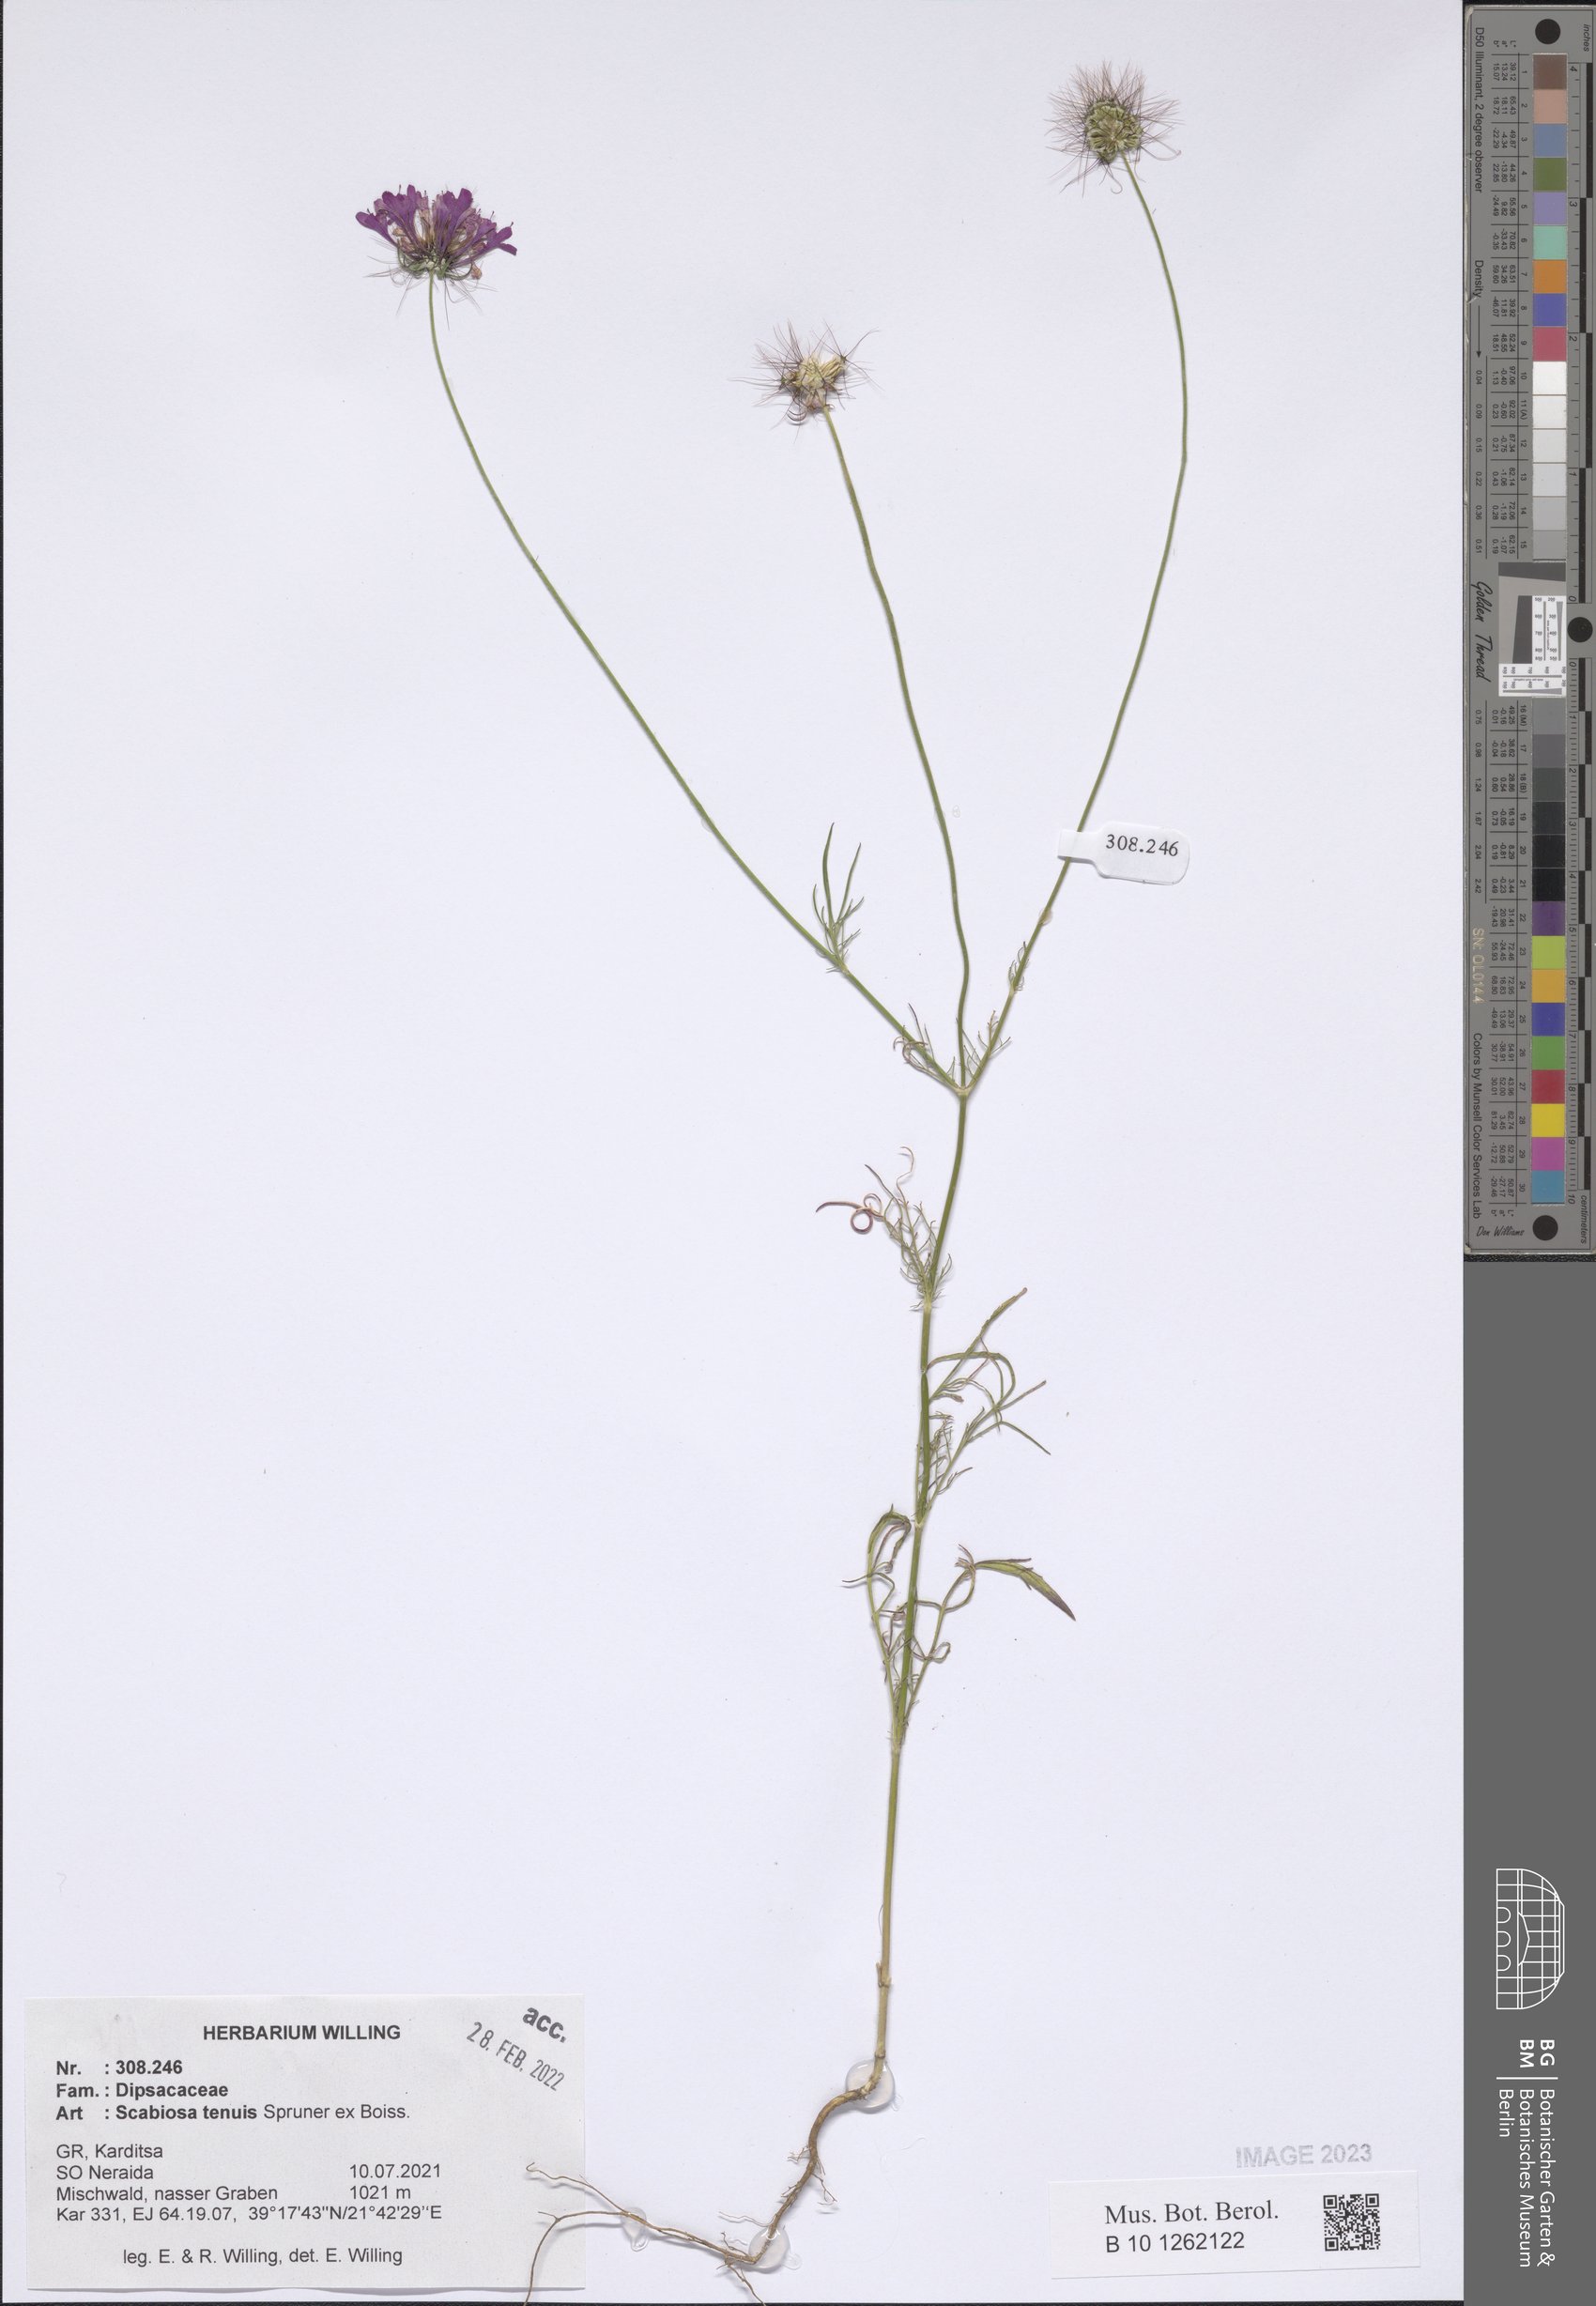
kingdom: Plantae
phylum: Tracheophyta
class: Magnoliopsida
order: Dipsacales
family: Caprifoliaceae
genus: Scabiosa
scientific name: Scabiosa tenuis
